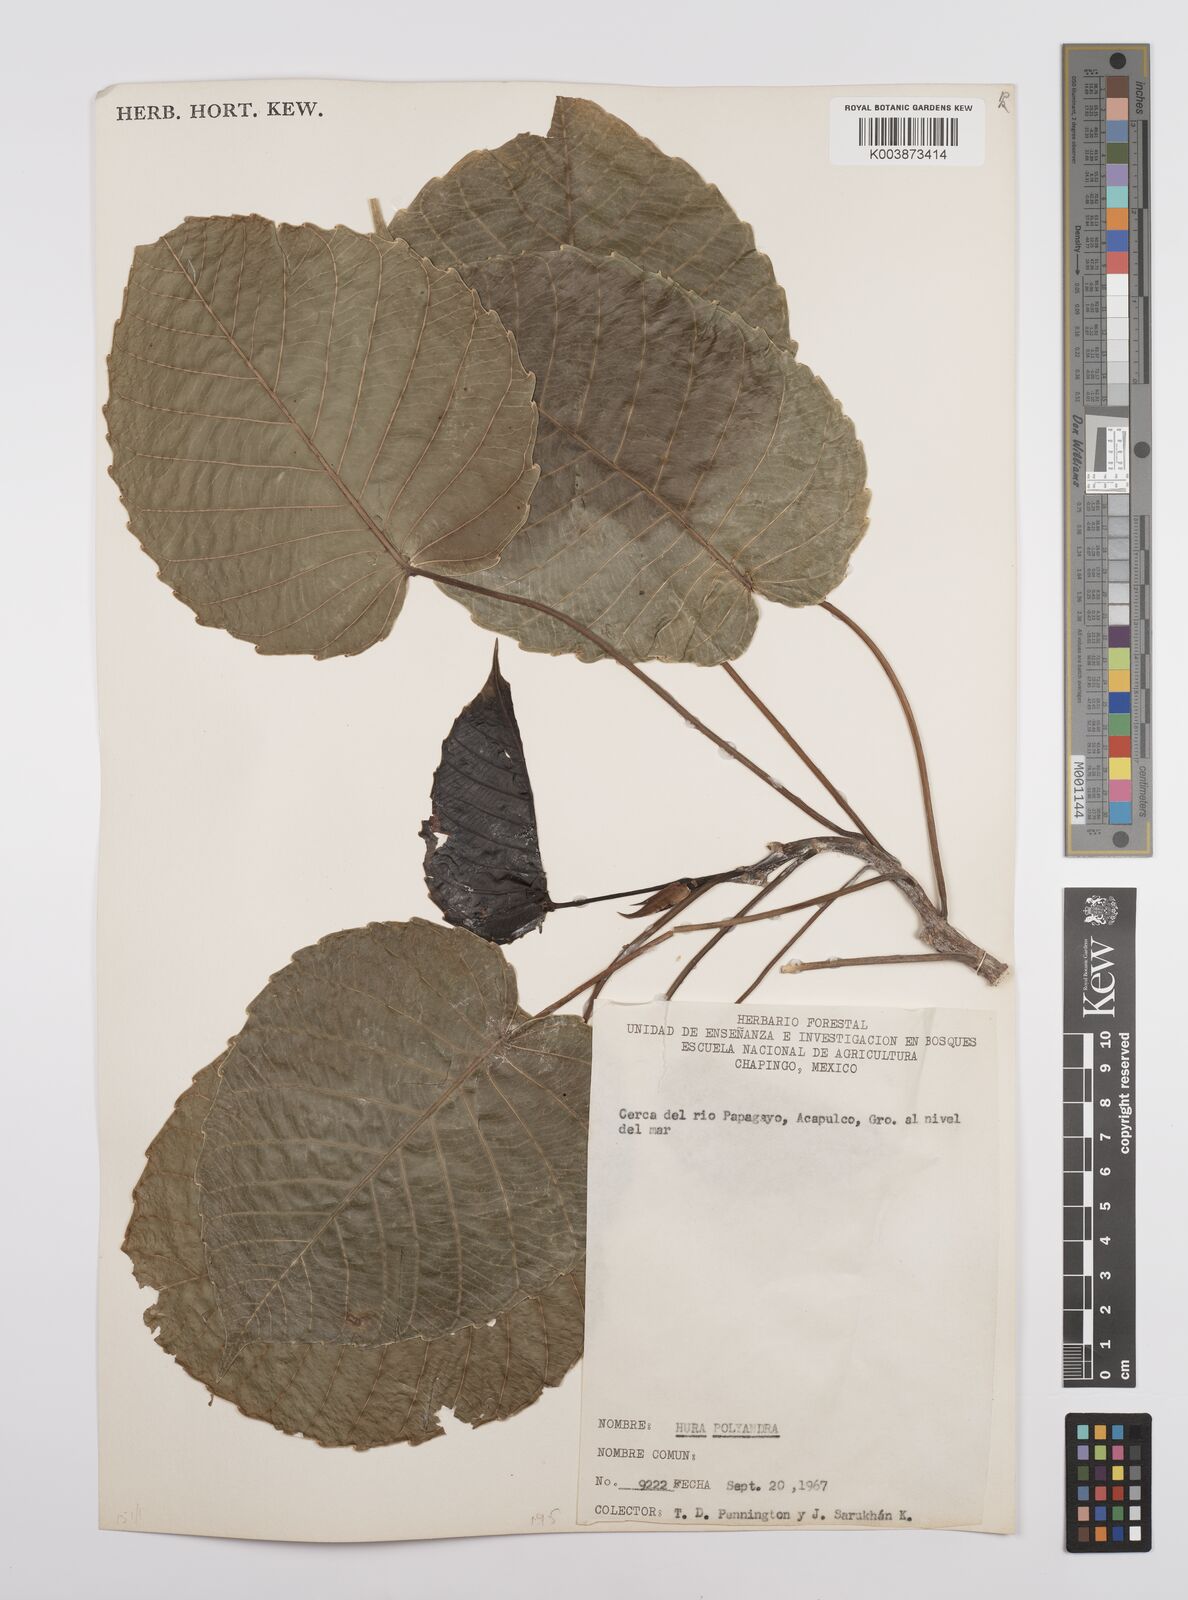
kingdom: Plantae
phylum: Tracheophyta
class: Magnoliopsida
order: Malpighiales
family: Euphorbiaceae
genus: Hura
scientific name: Hura polyandra
